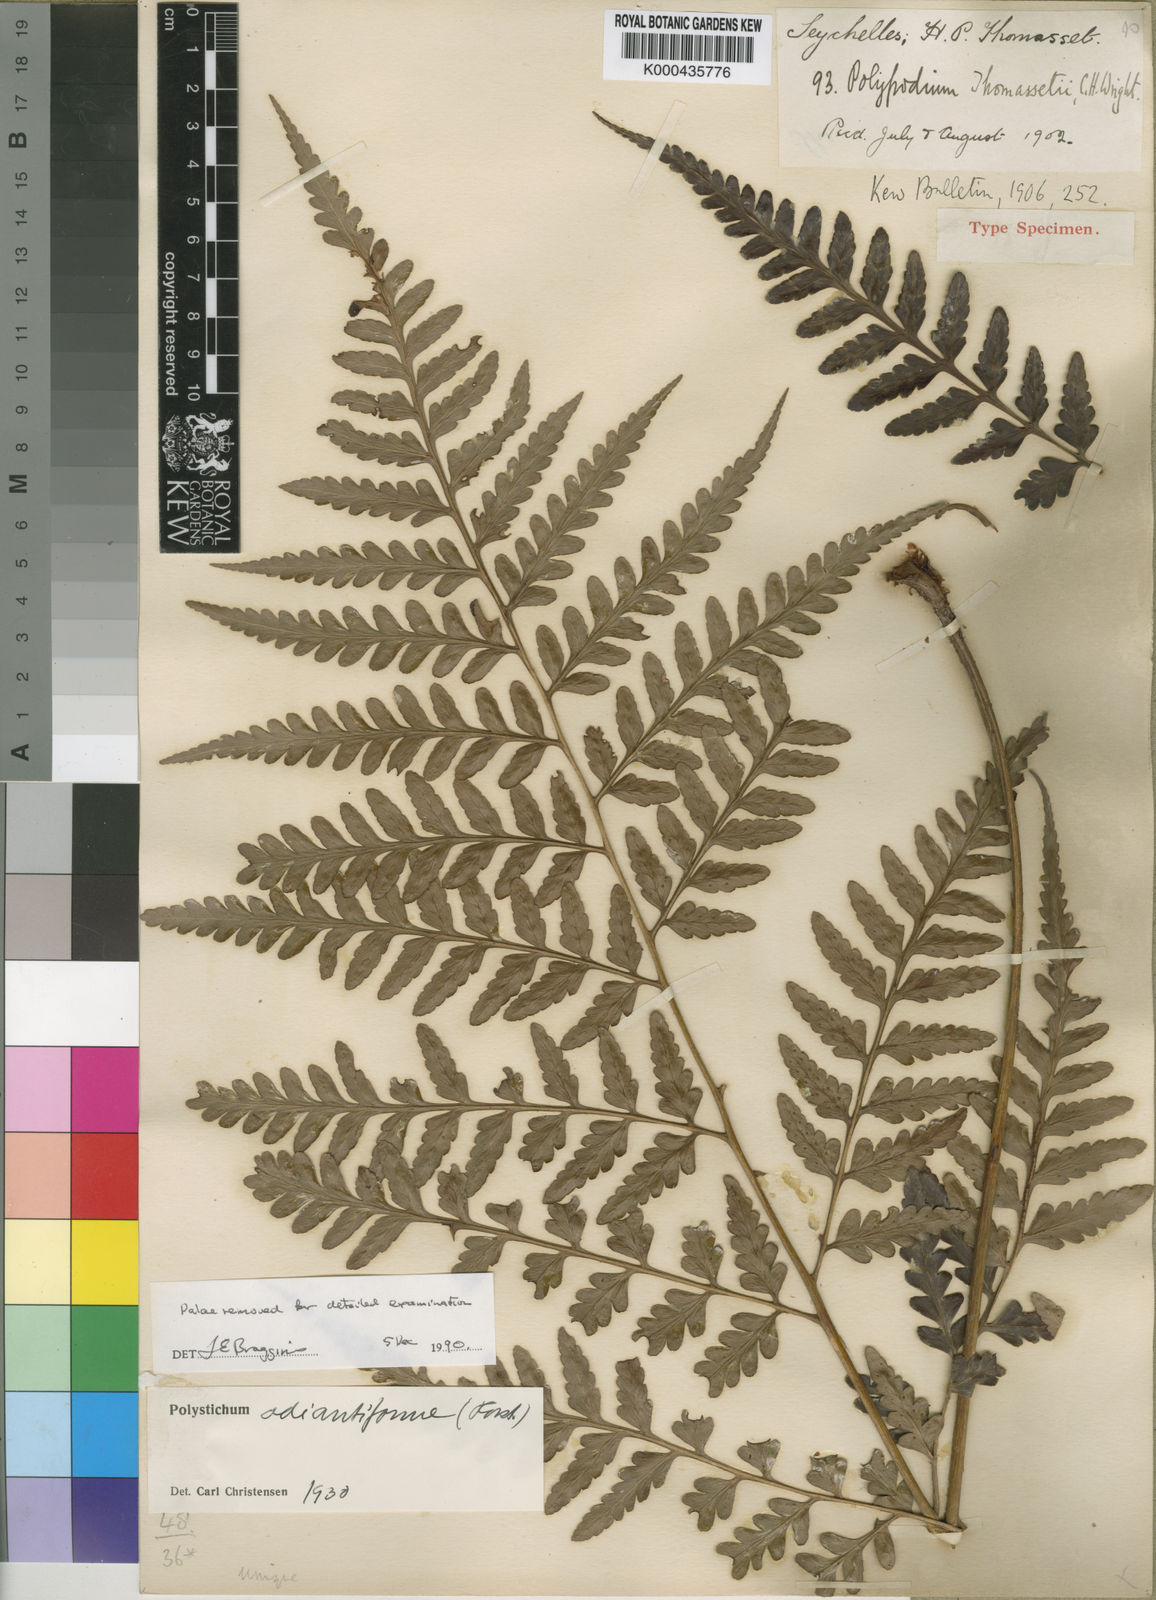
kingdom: Plantae
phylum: Tracheophyta
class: Polypodiopsida
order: Polypodiales
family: Dryopteridaceae
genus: Rumohra
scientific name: Rumohra adiantiformis
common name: Leather fern
